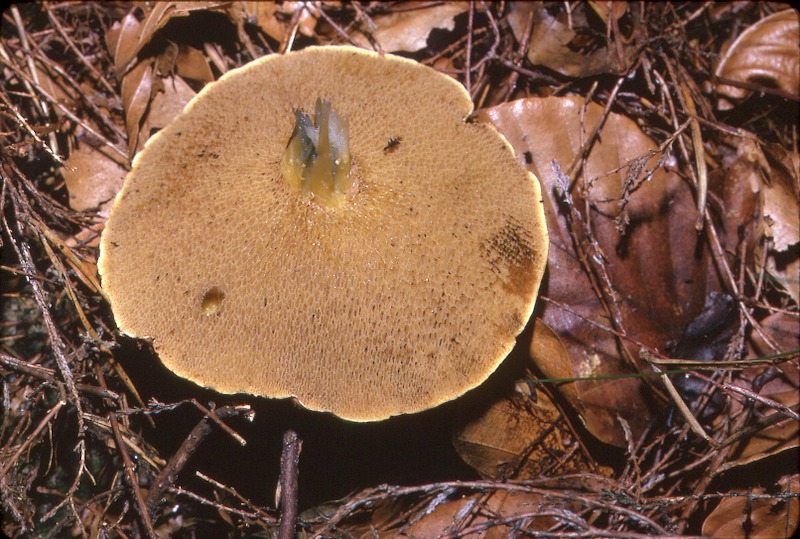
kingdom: Fungi
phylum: Basidiomycota
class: Agaricomycetes
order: Boletales
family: Suillaceae
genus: Suillus
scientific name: Suillus bovinus
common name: Bovine bolete
